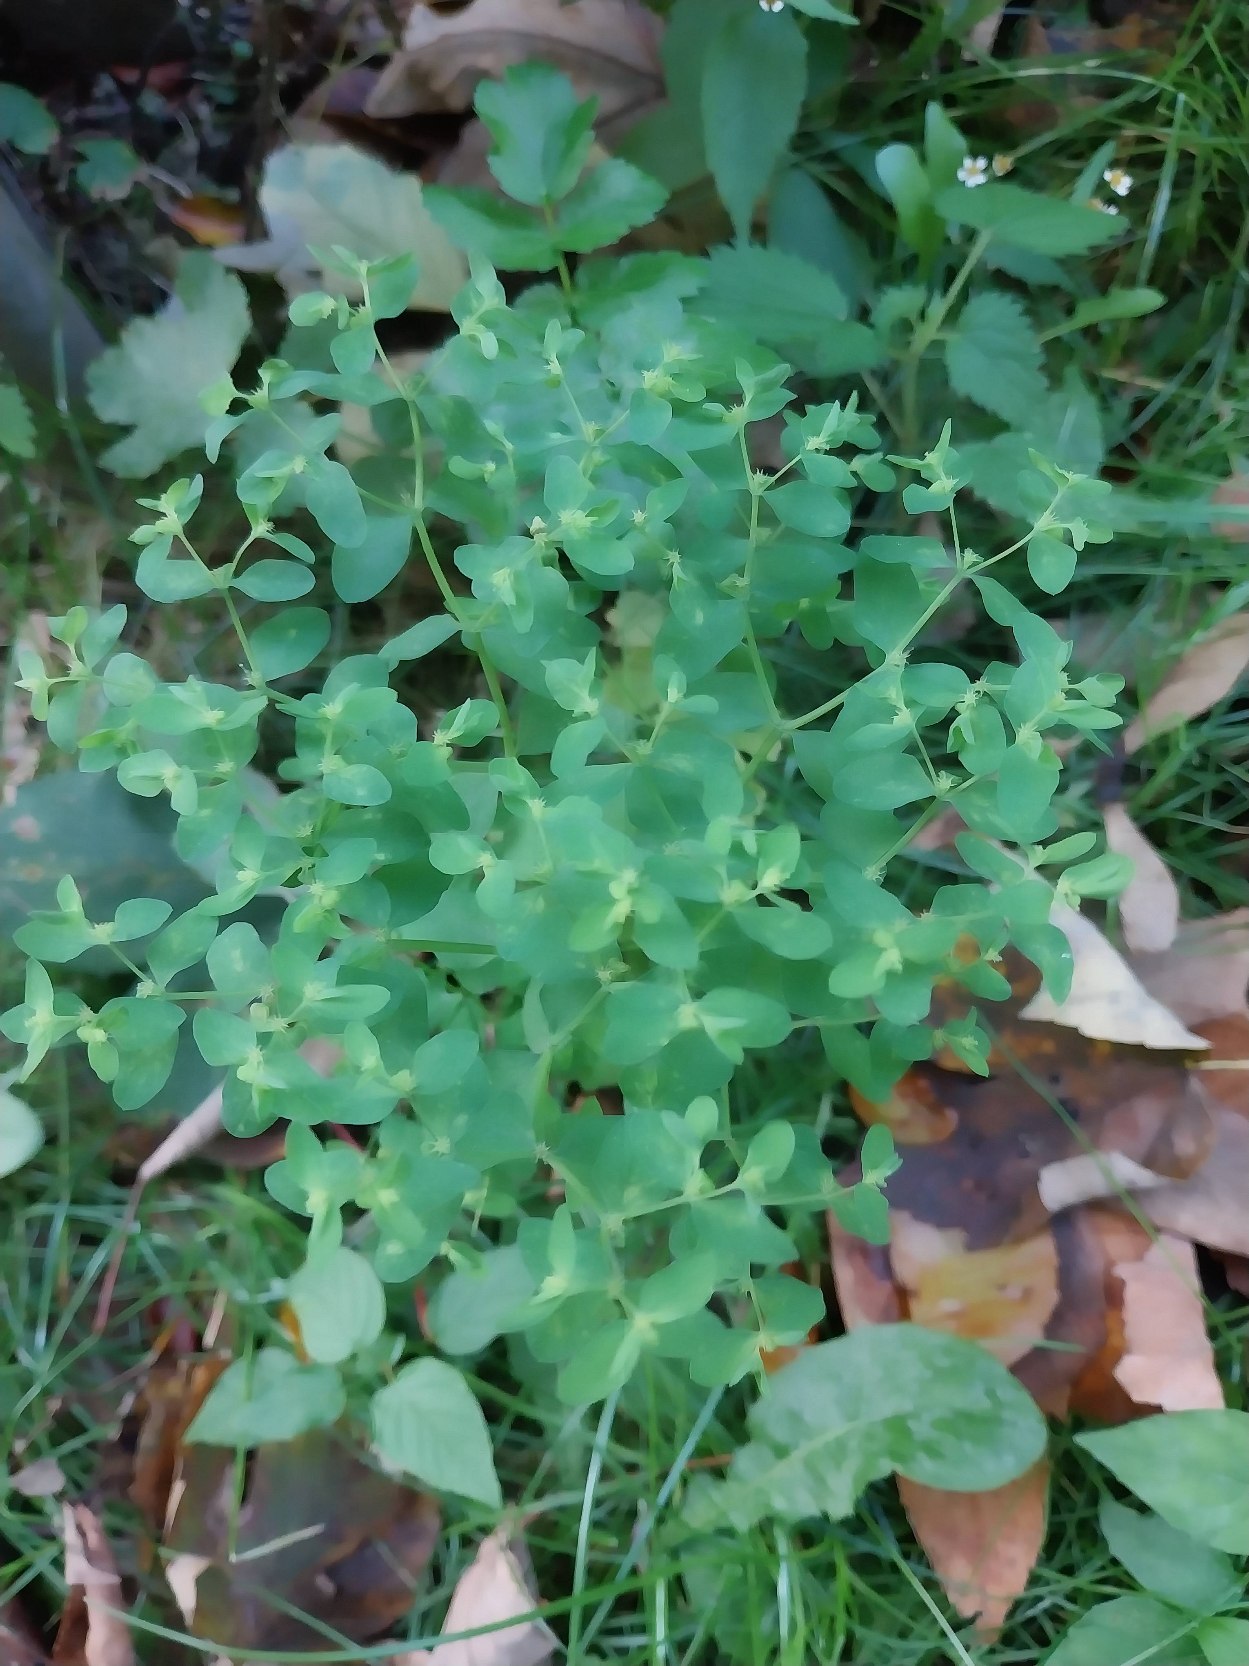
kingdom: Plantae
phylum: Tracheophyta
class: Magnoliopsida
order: Malpighiales
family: Euphorbiaceae
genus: Euphorbia
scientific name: Euphorbia peplus
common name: Gaffel-vortemælk
